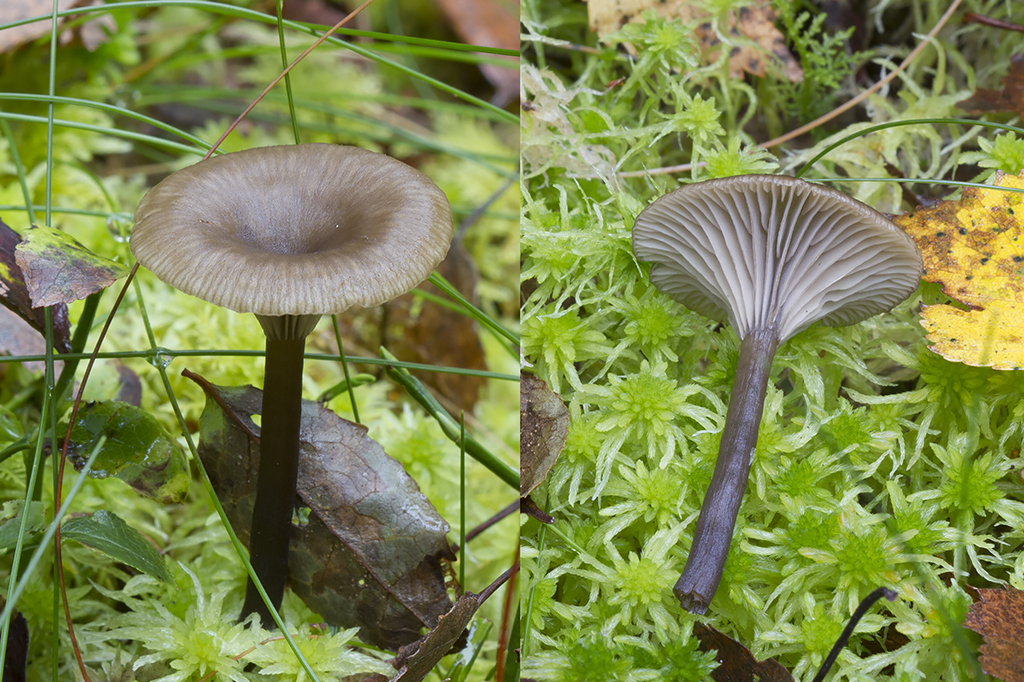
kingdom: Fungi
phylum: Basidiomycota
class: Agaricomycetes
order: Agaricales
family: Hygrophoraceae
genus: Arrhenia
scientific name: Arrhenia telmatiaea
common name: glat fontænehat
